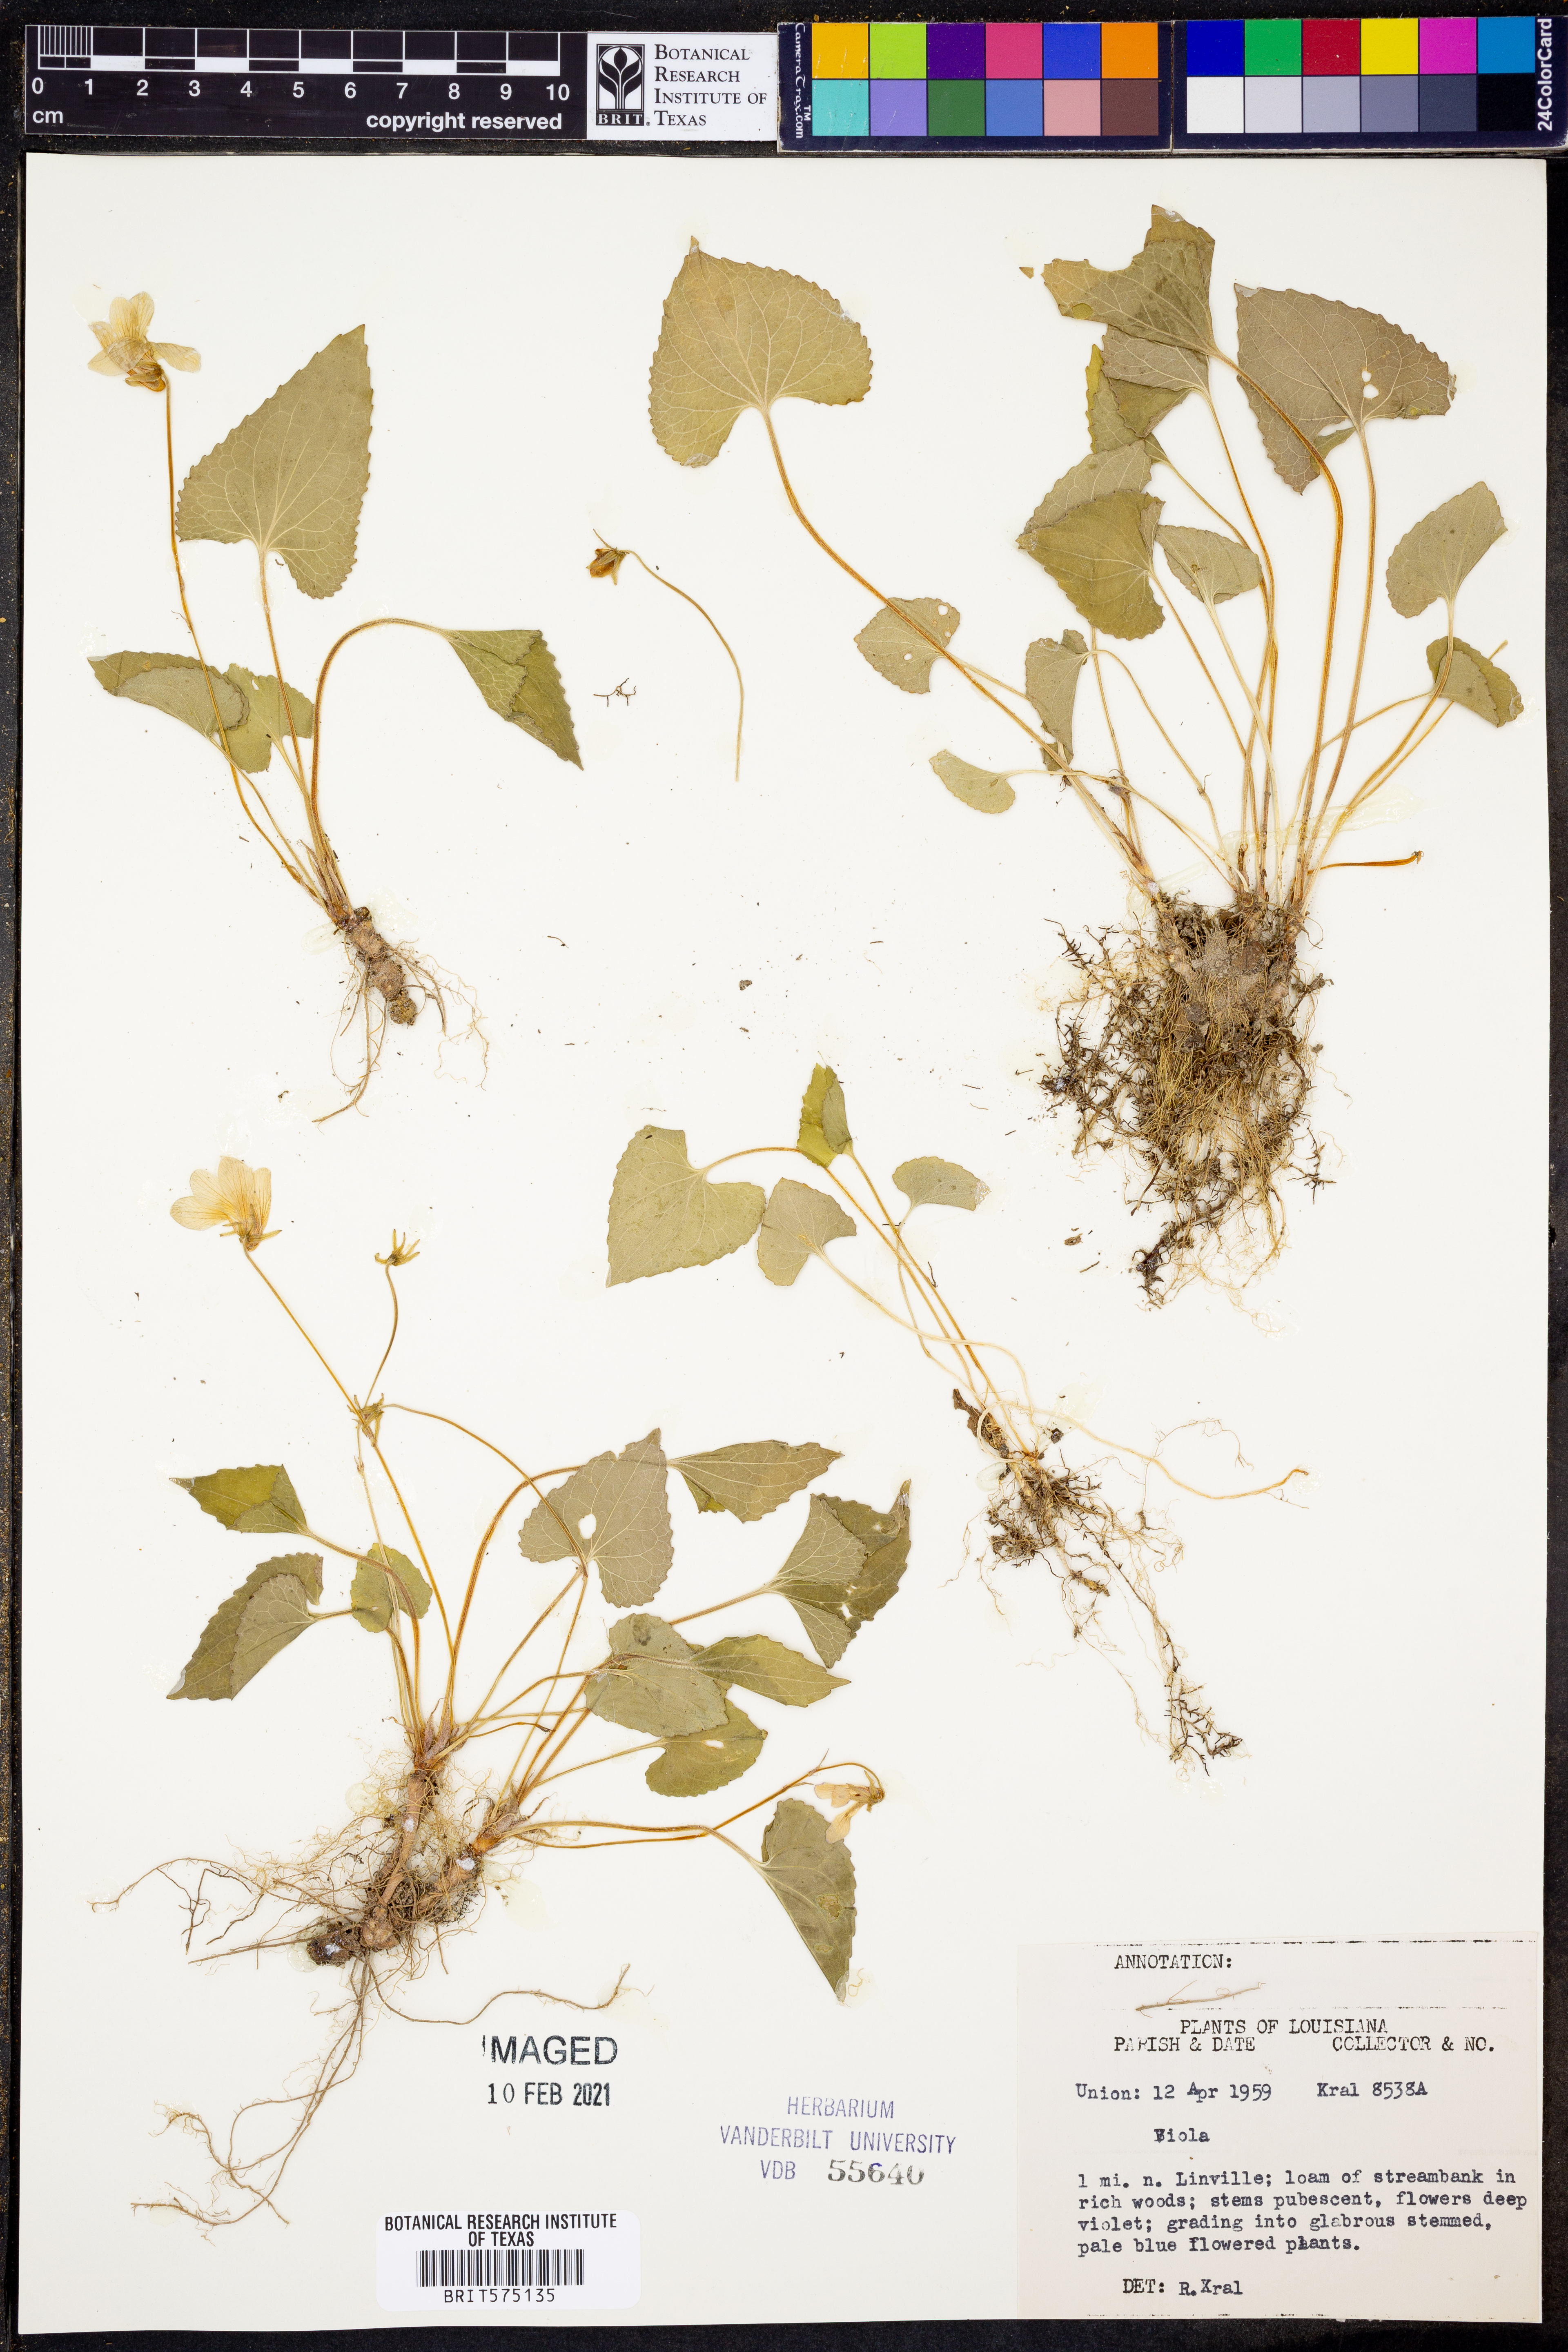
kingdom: Plantae
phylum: Tracheophyta
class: Magnoliopsida
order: Malpighiales
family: Violaceae
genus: Viola
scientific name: Viola
